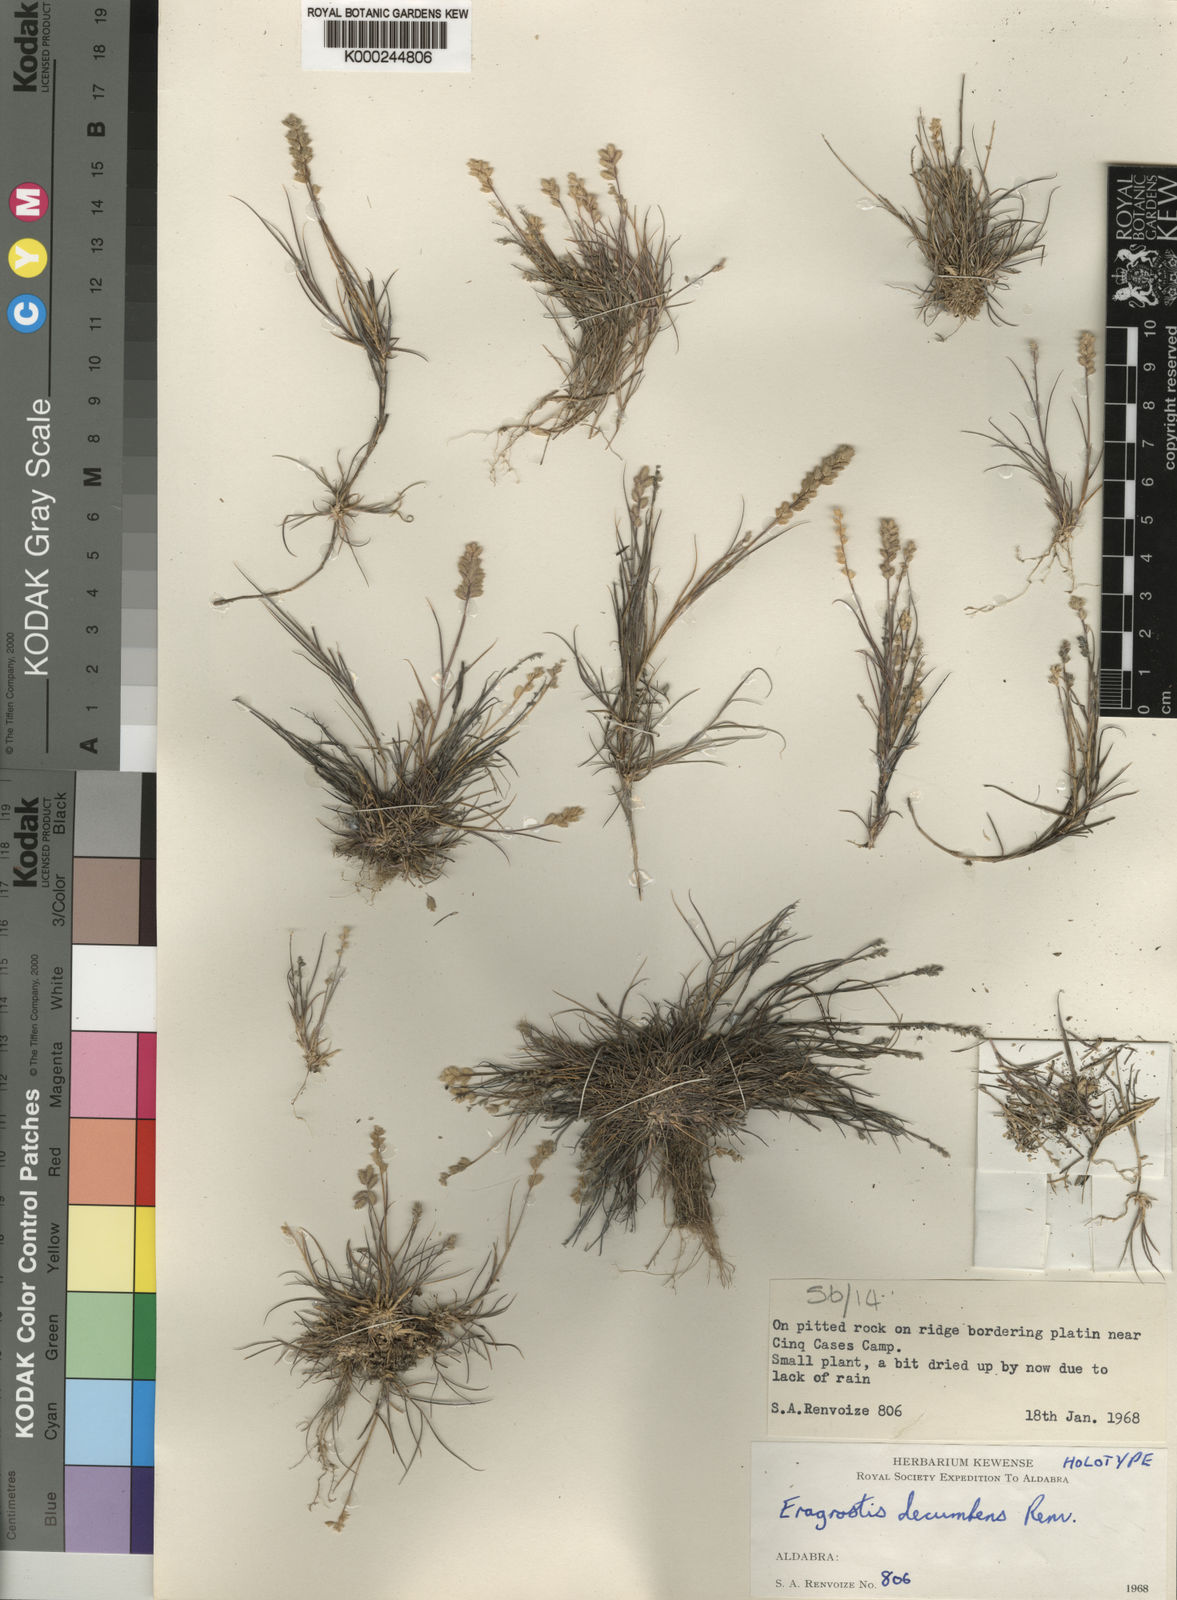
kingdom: Plantae
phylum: Tracheophyta
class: Liliopsida
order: Poales
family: Poaceae
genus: Eragrostis
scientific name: Eragrostis decumbens
